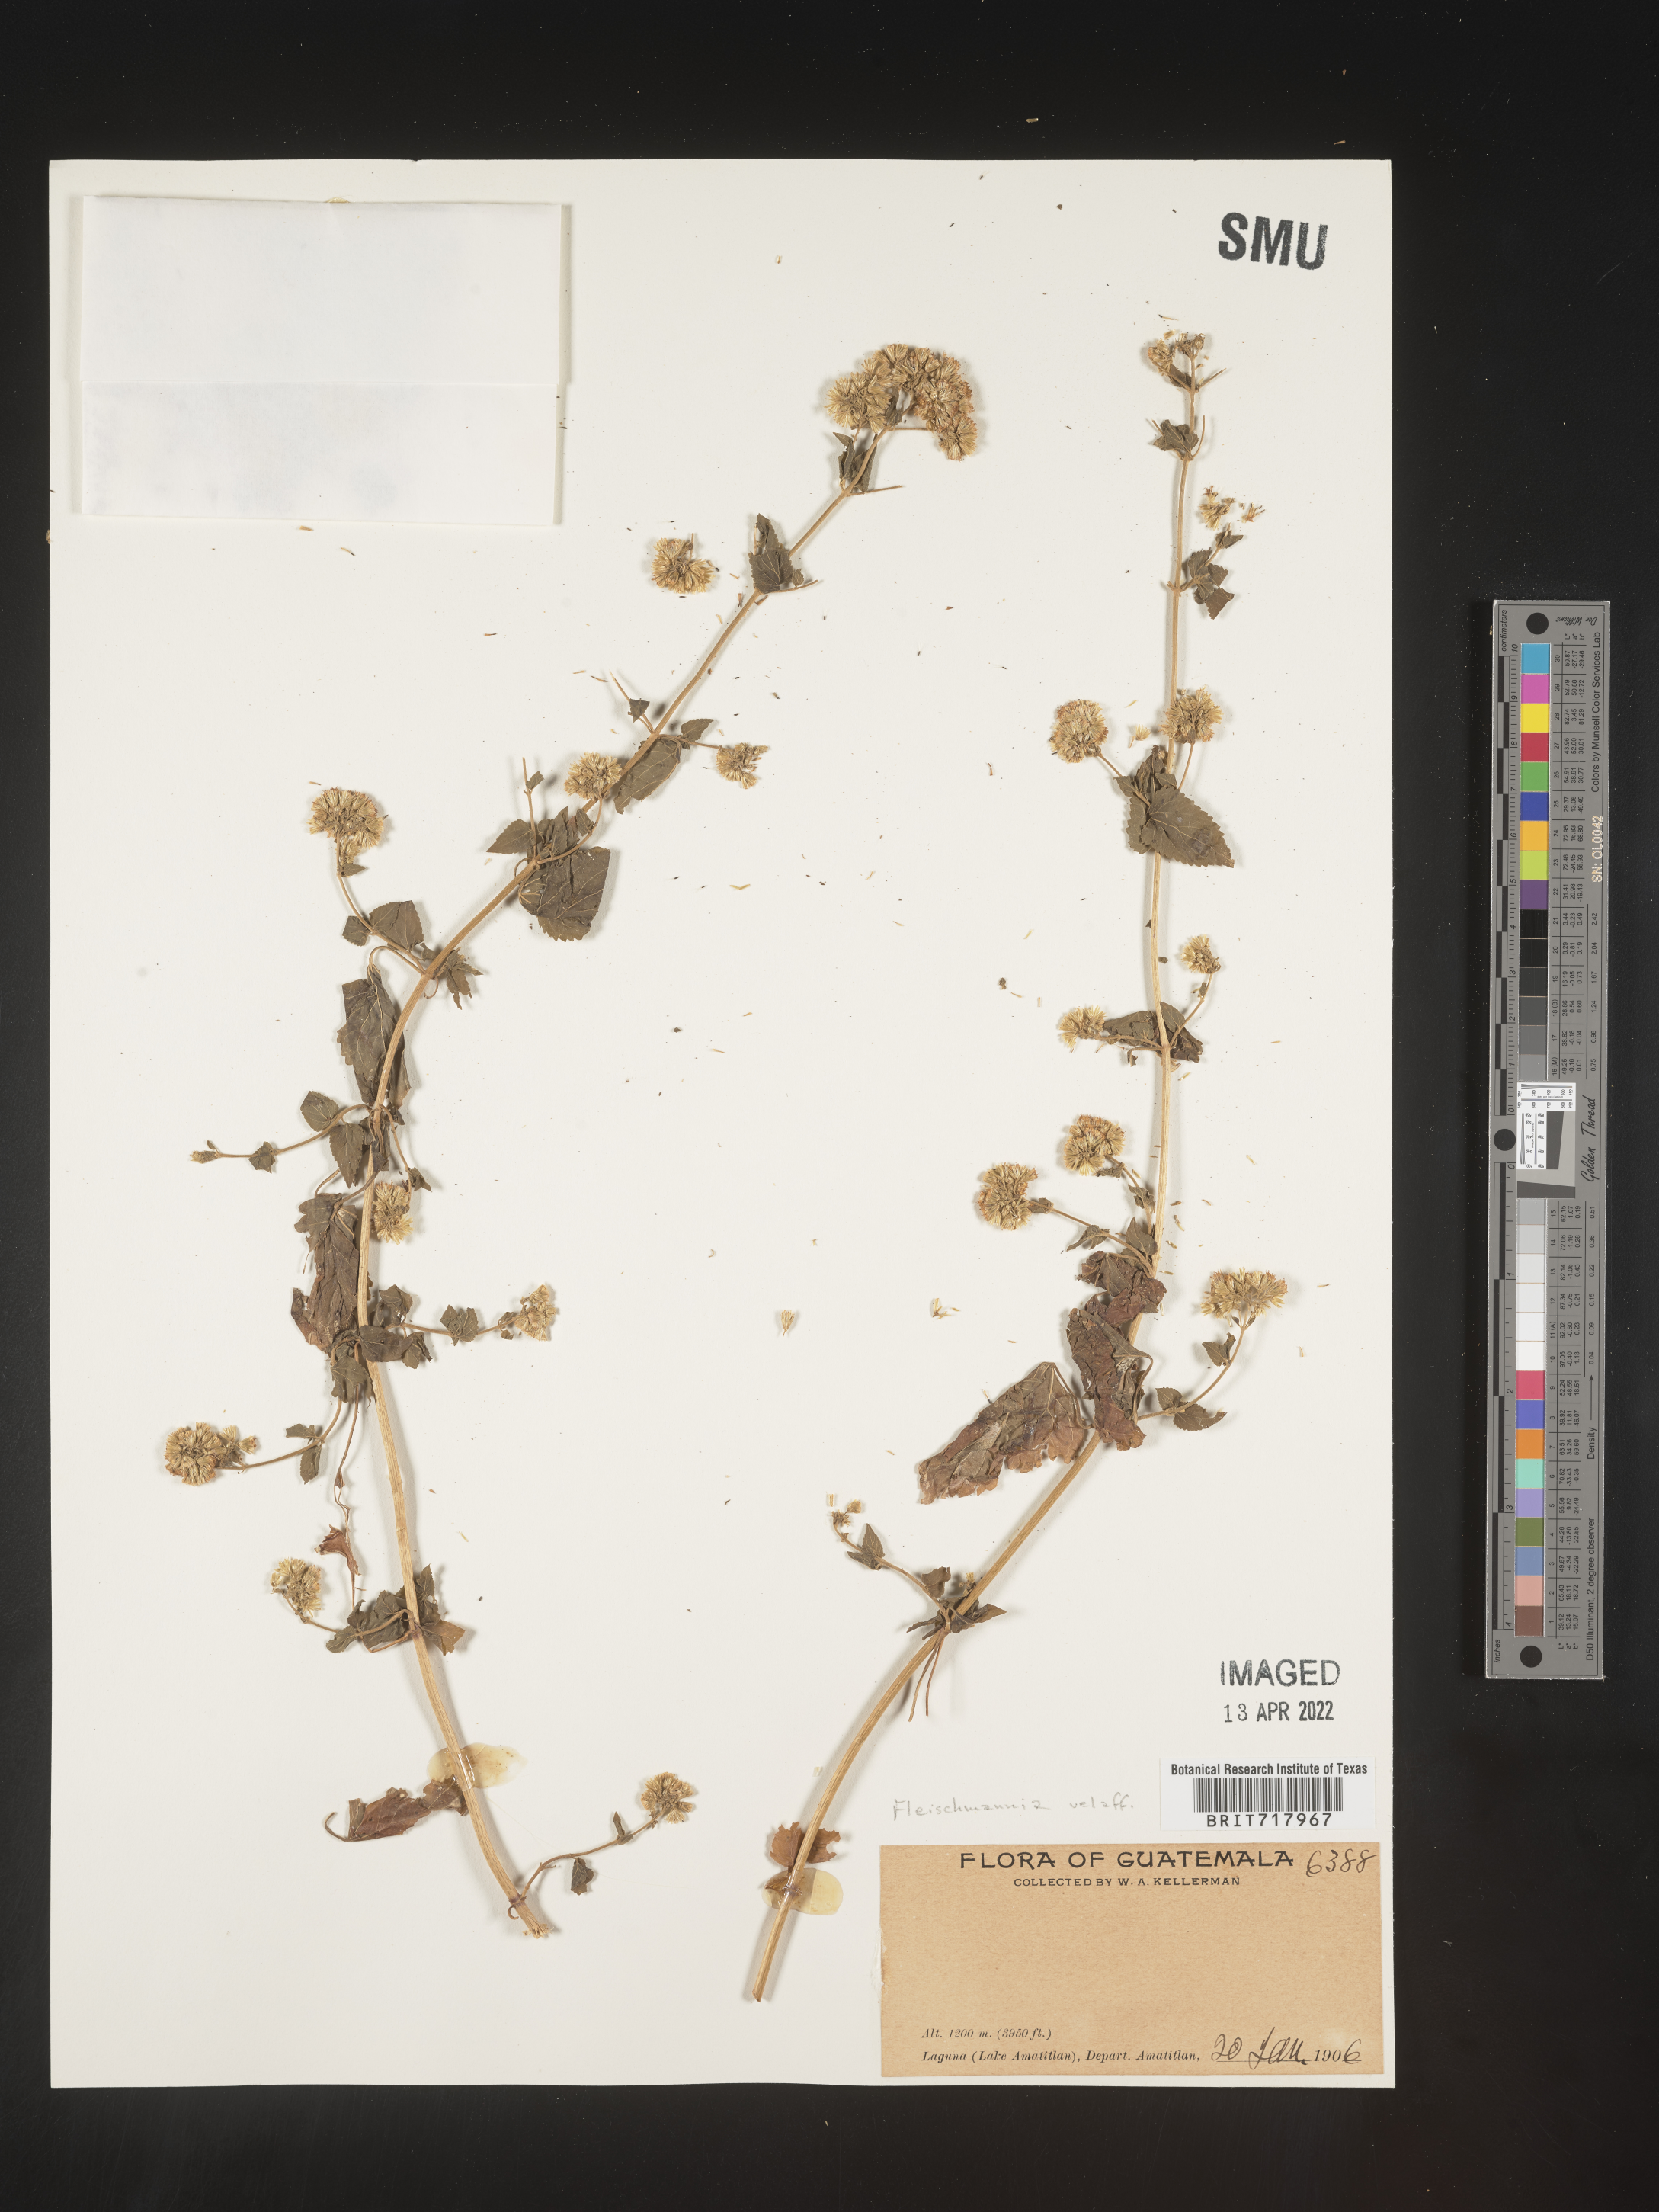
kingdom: Plantae
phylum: Tracheophyta
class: Magnoliopsida
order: Asterales
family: Asteraceae
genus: Fleischmannia
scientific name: Fleischmannia
